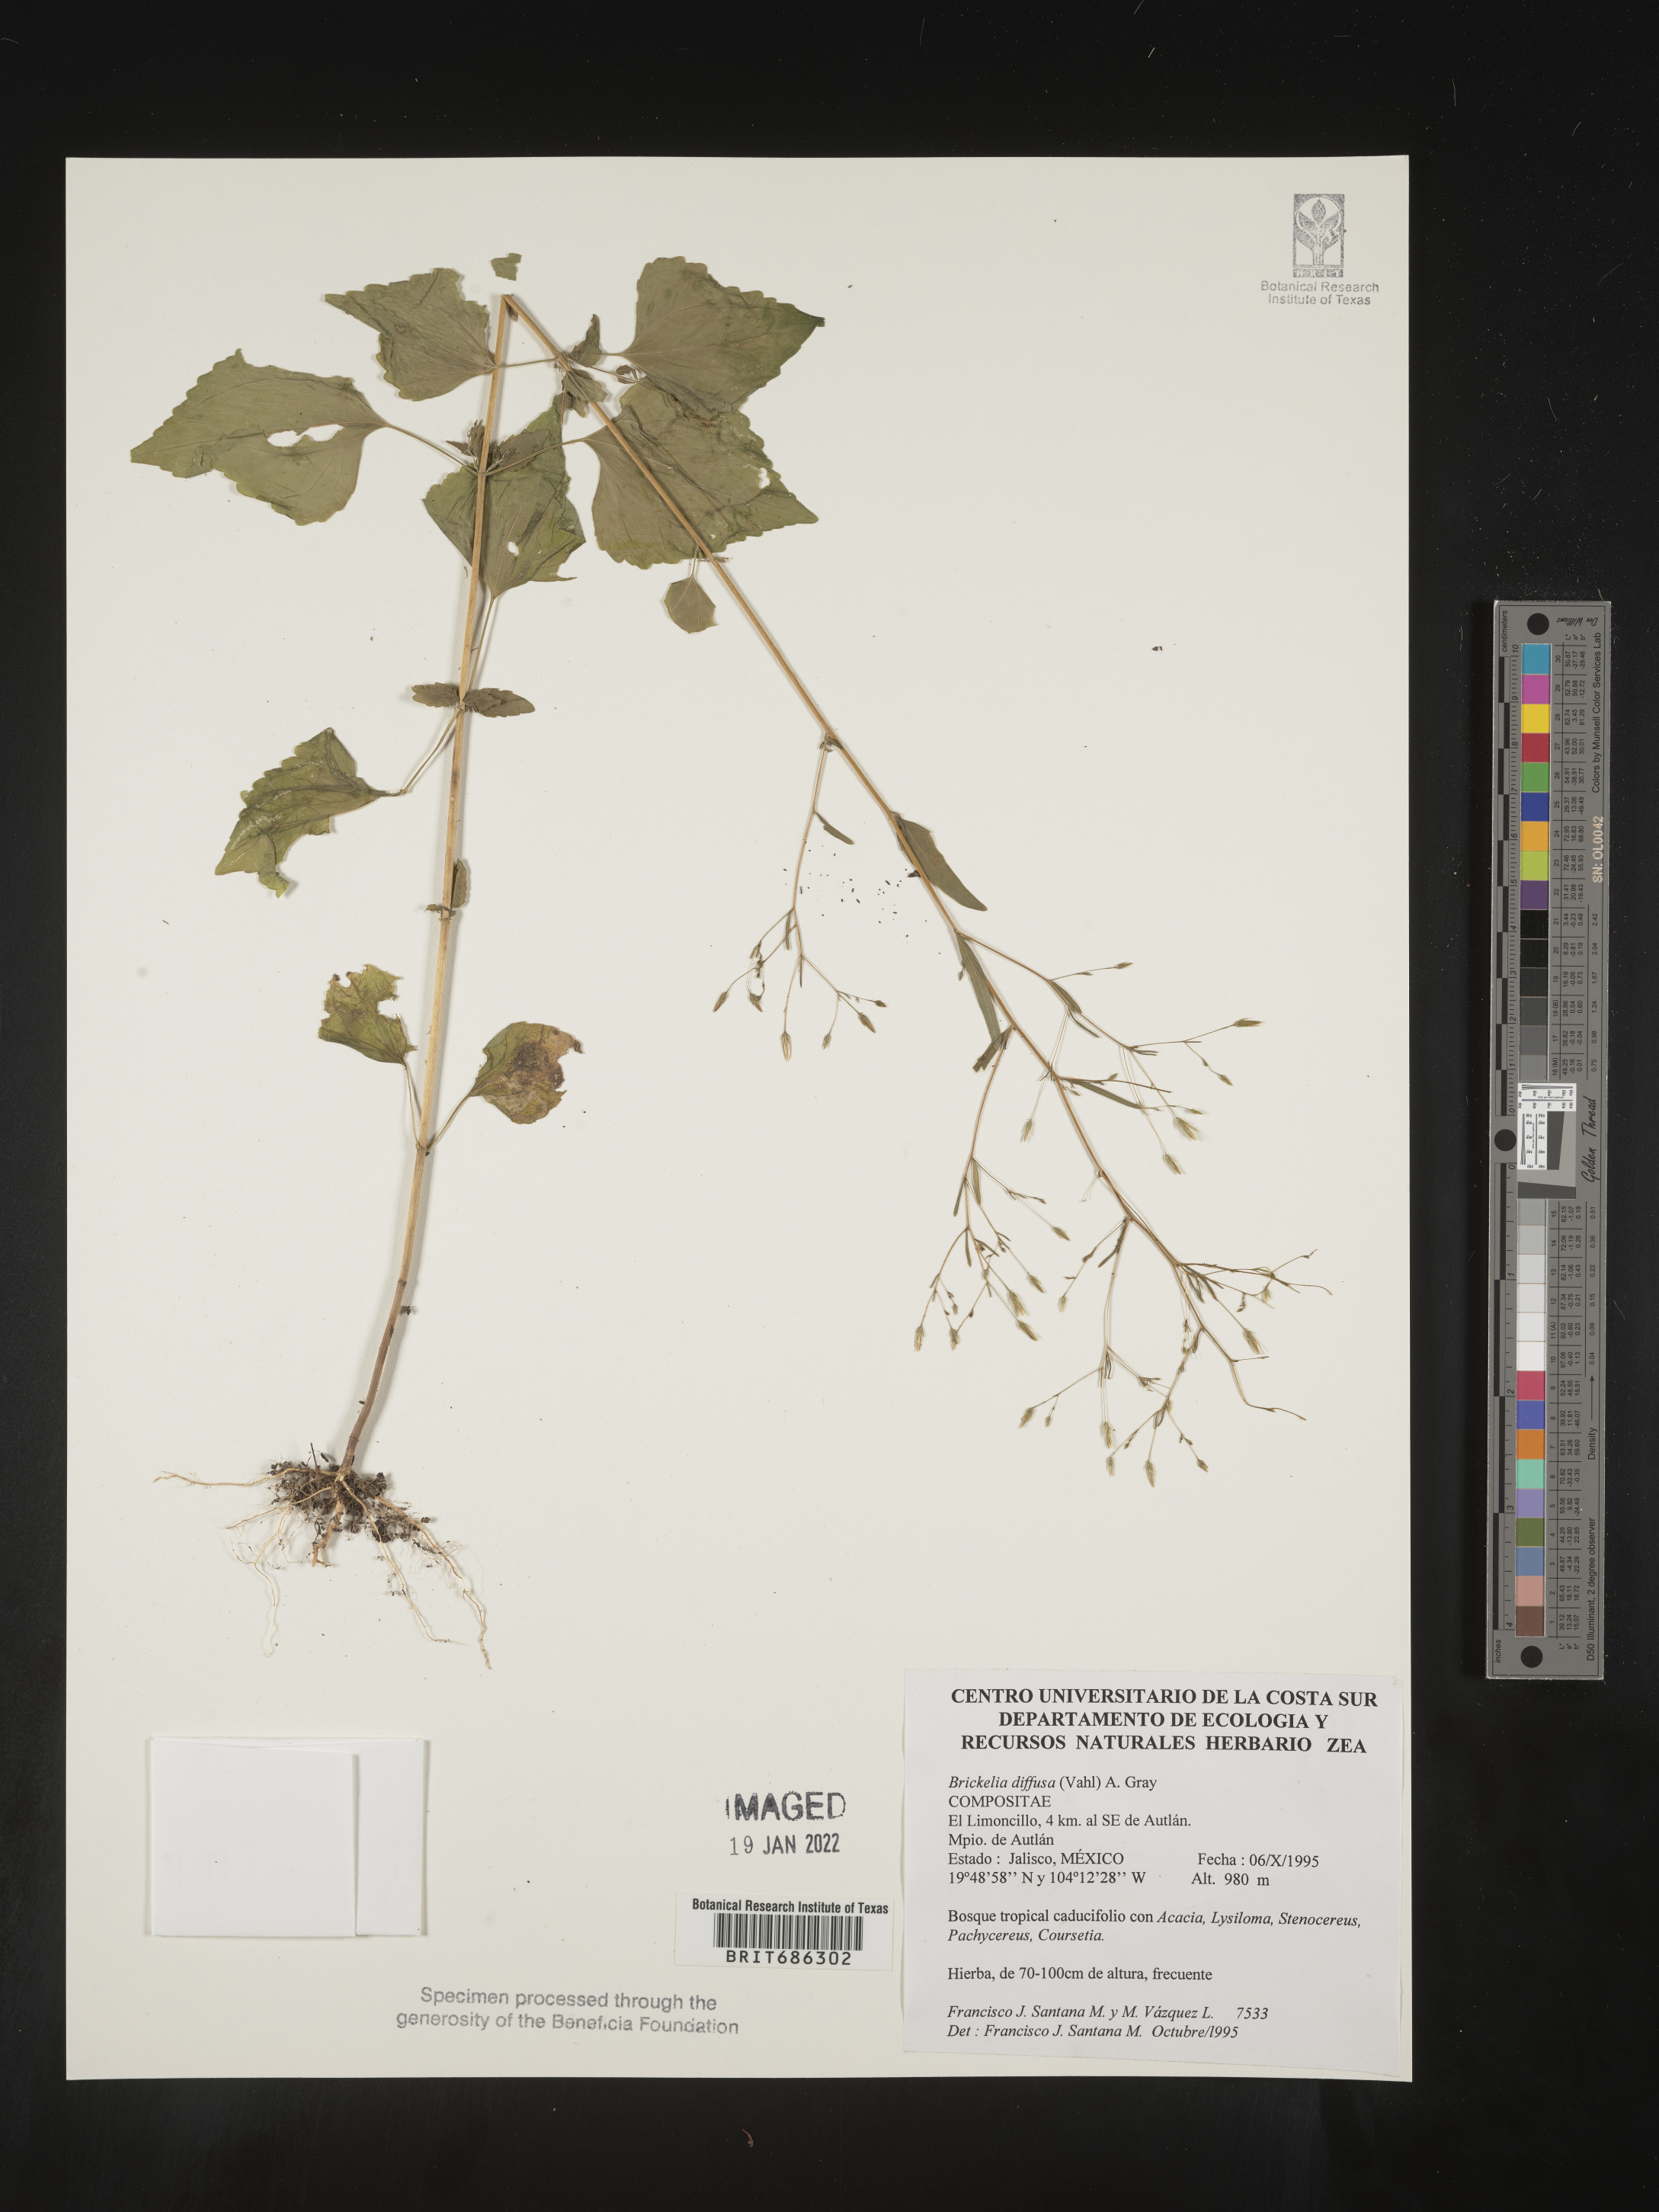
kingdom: Plantae
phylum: Tracheophyta
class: Magnoliopsida
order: Asterales
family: Asteraceae
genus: Brickellia
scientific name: Brickellia diffusa
